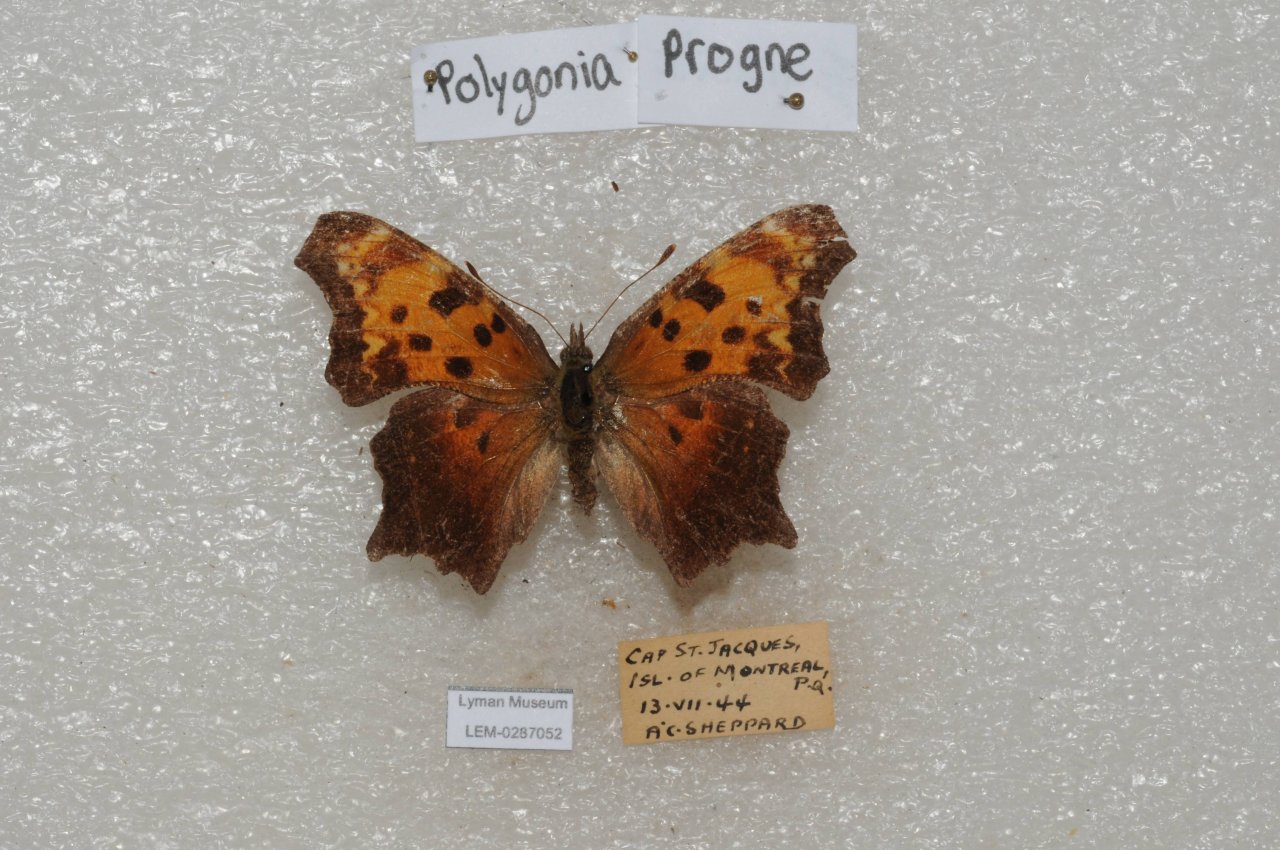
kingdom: Animalia
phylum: Arthropoda
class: Insecta
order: Lepidoptera
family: Nymphalidae
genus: Polygonia
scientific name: Polygonia progne
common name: Gray Comma
